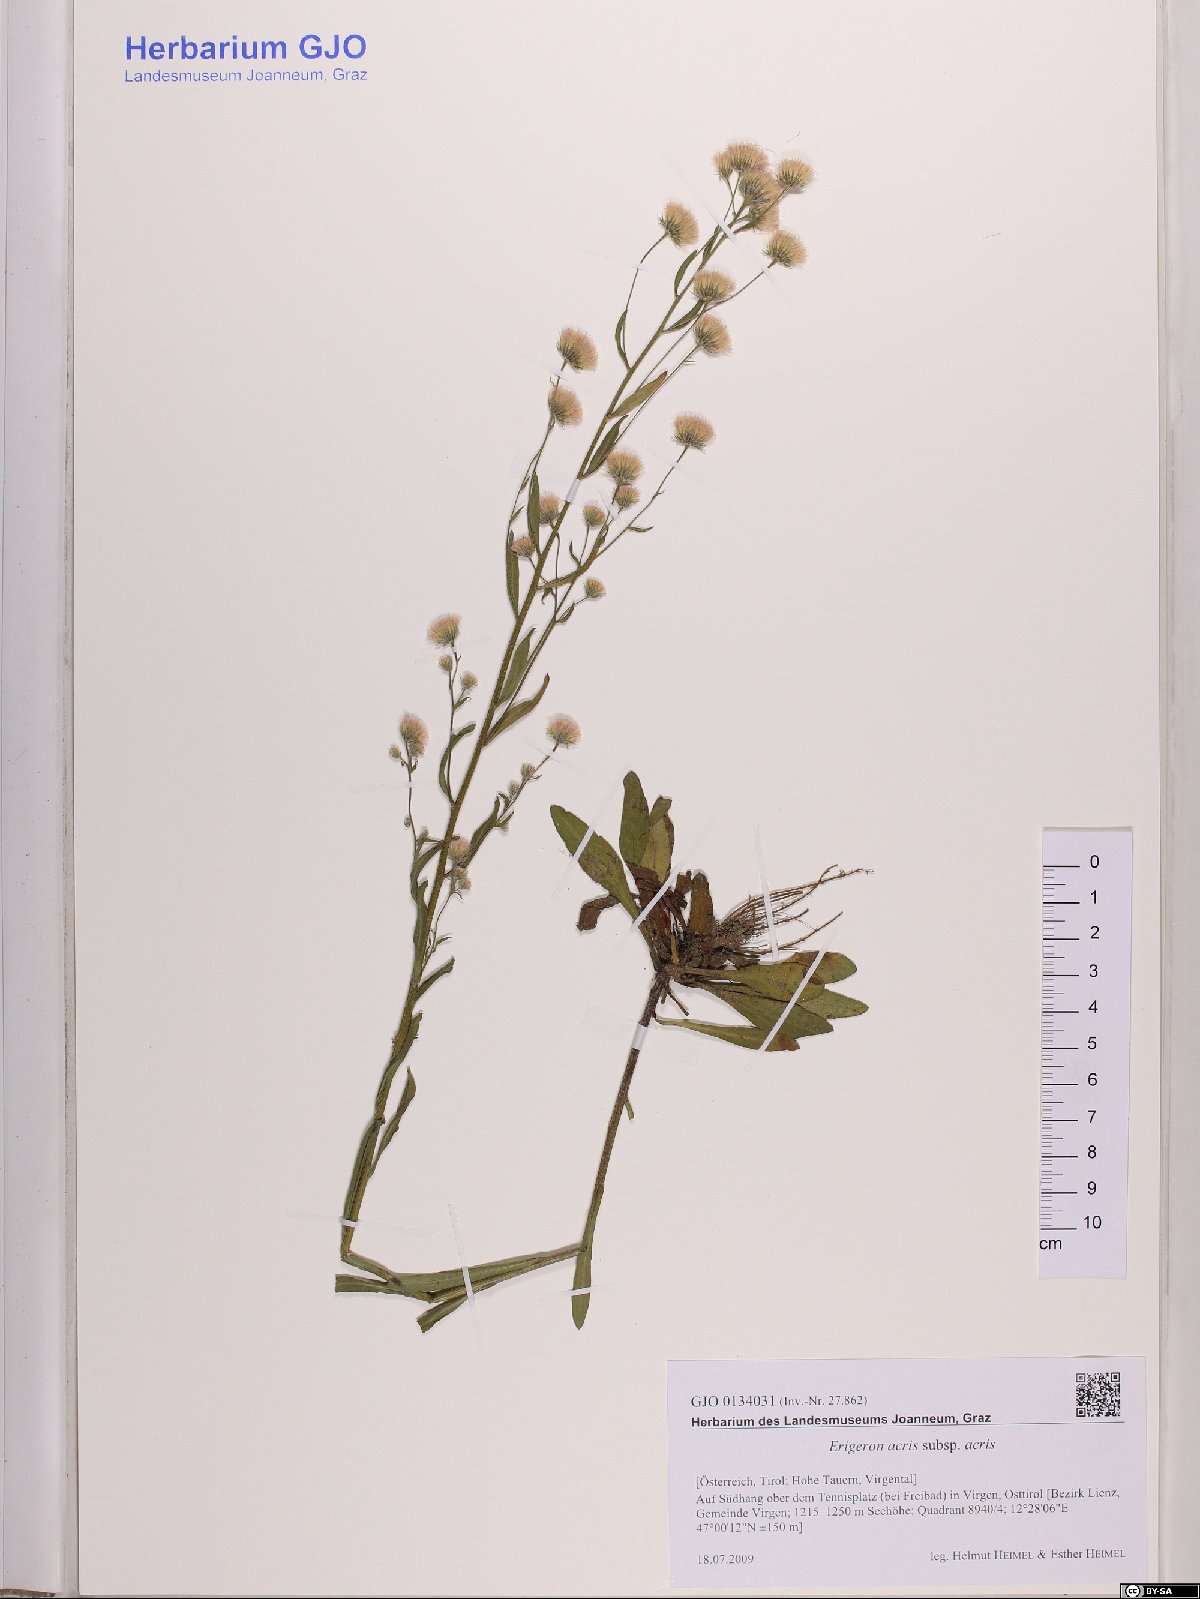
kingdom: Plantae
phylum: Tracheophyta
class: Magnoliopsida
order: Asterales
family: Asteraceae
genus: Erigeron
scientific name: Erigeron acris
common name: Blue fleabane
